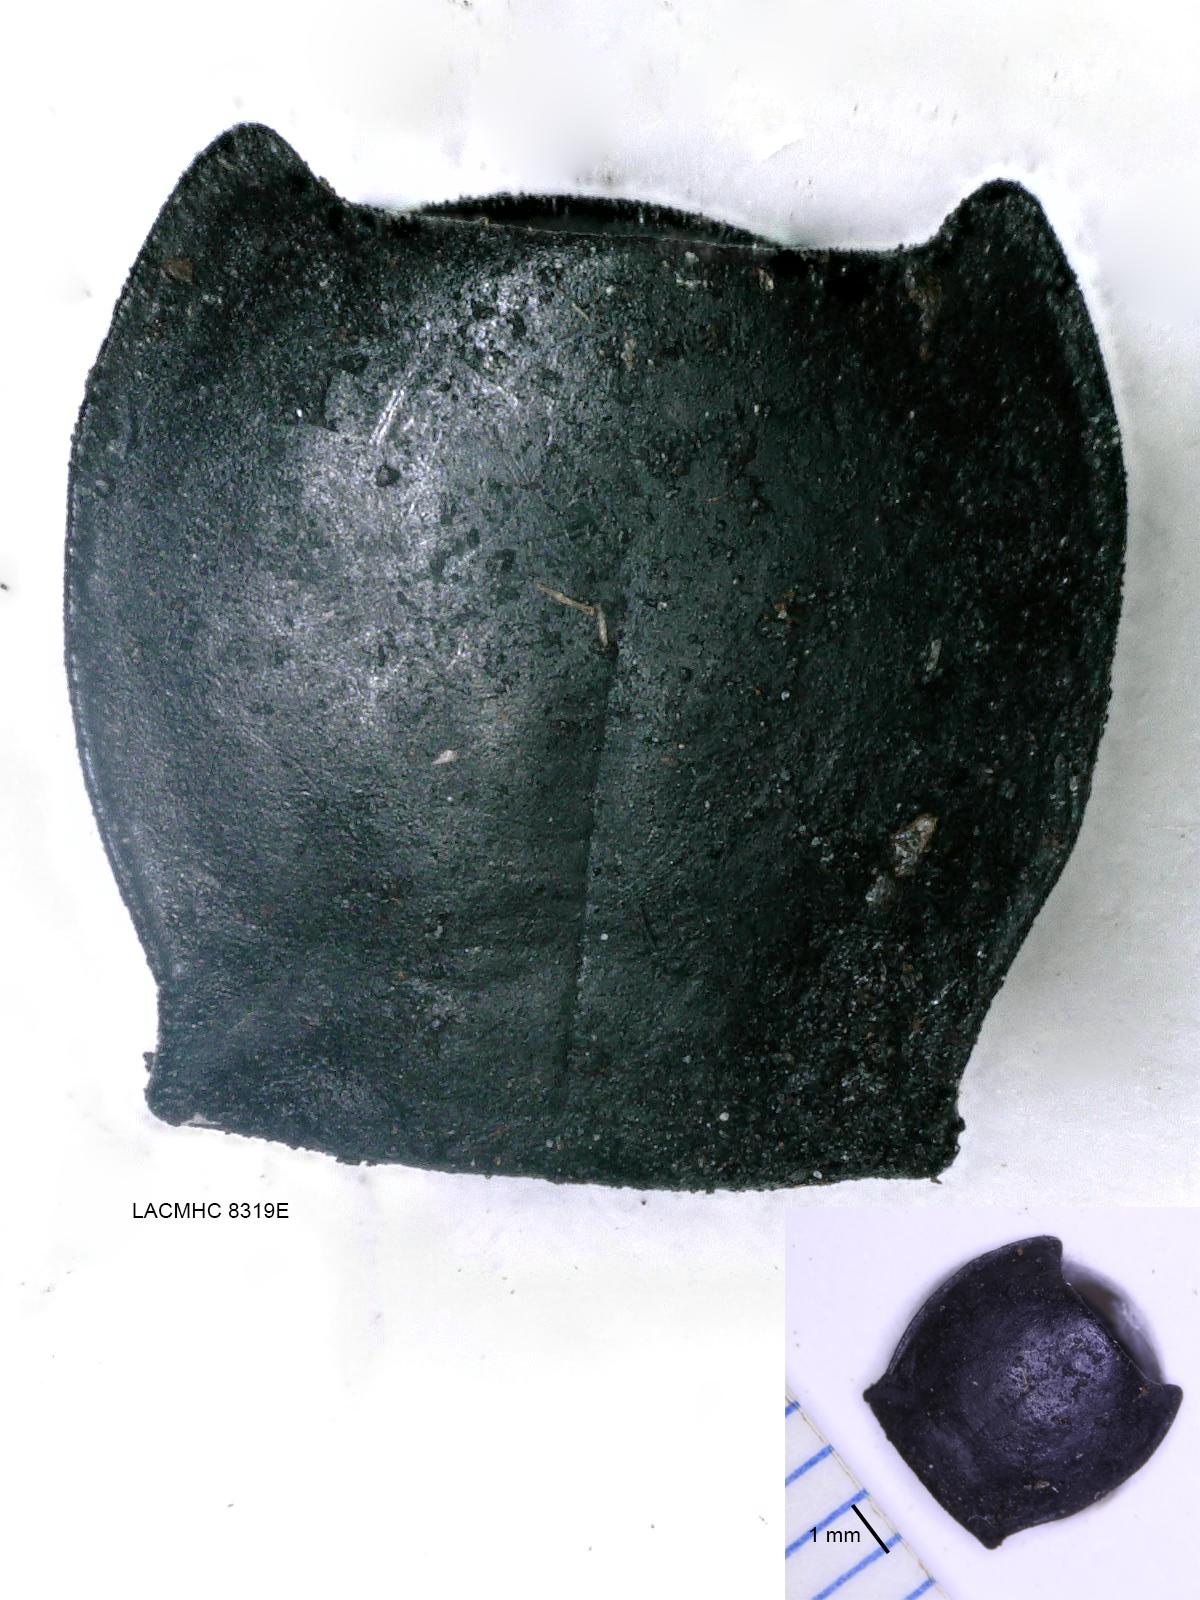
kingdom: Animalia
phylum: Arthropoda
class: Insecta
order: Coleoptera
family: Carabidae
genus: Pterostichus
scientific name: Pterostichus illustris
